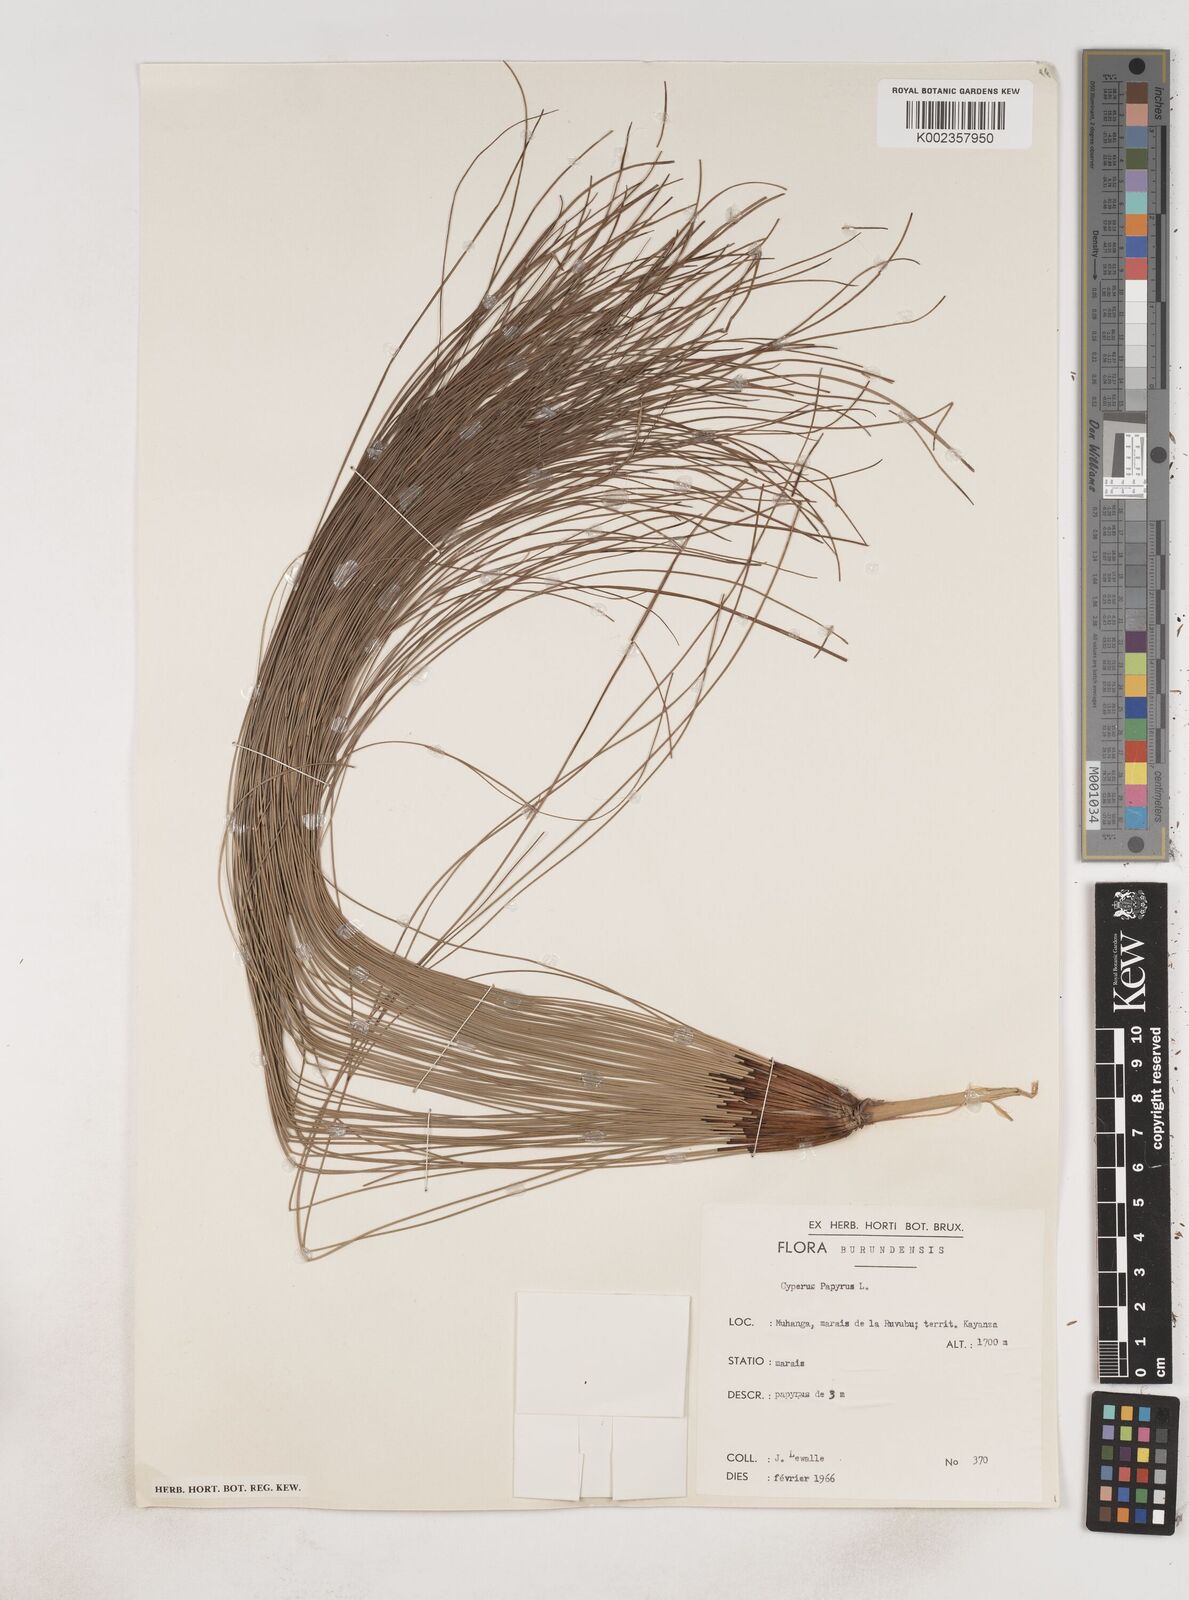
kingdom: Plantae
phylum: Tracheophyta
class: Liliopsida
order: Poales
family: Cyperaceae
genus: Cyperus
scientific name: Cyperus papyrus
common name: Papyrus
